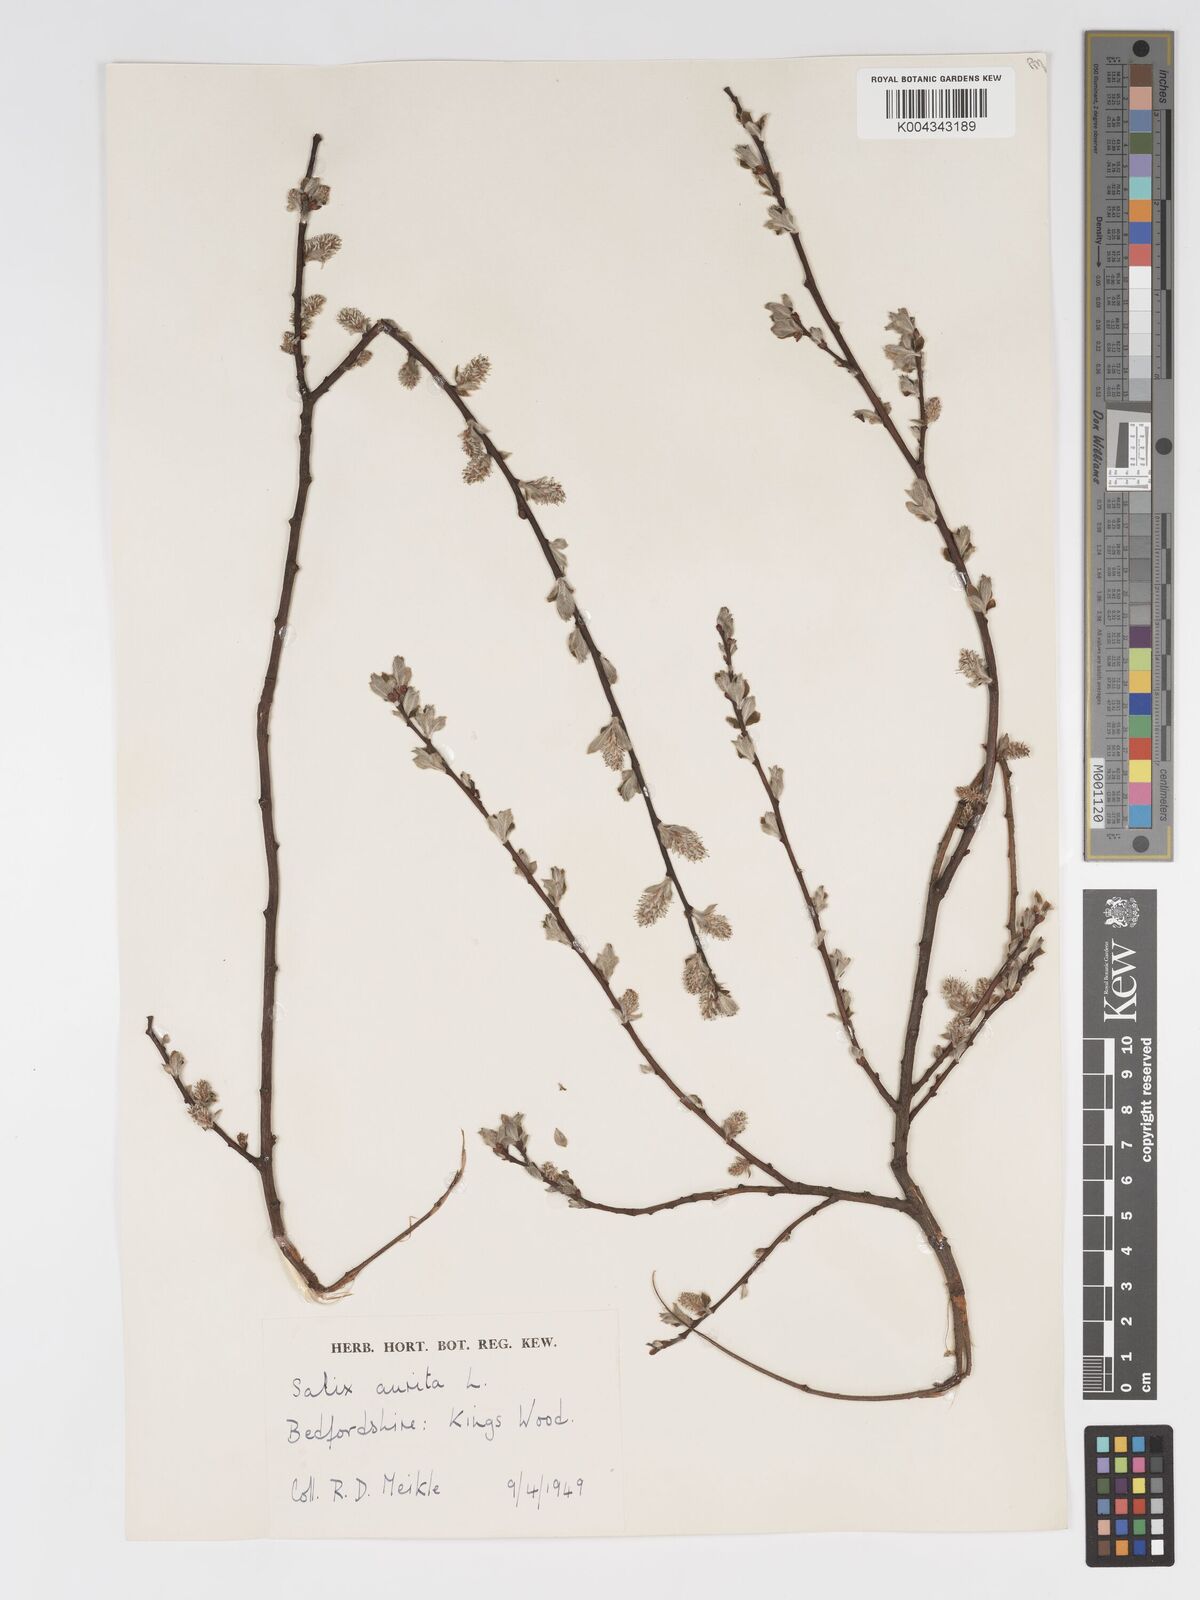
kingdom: Plantae
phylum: Tracheophyta
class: Magnoliopsida
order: Malpighiales
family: Salicaceae
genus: Salix
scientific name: Salix aurita
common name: Eared willow
